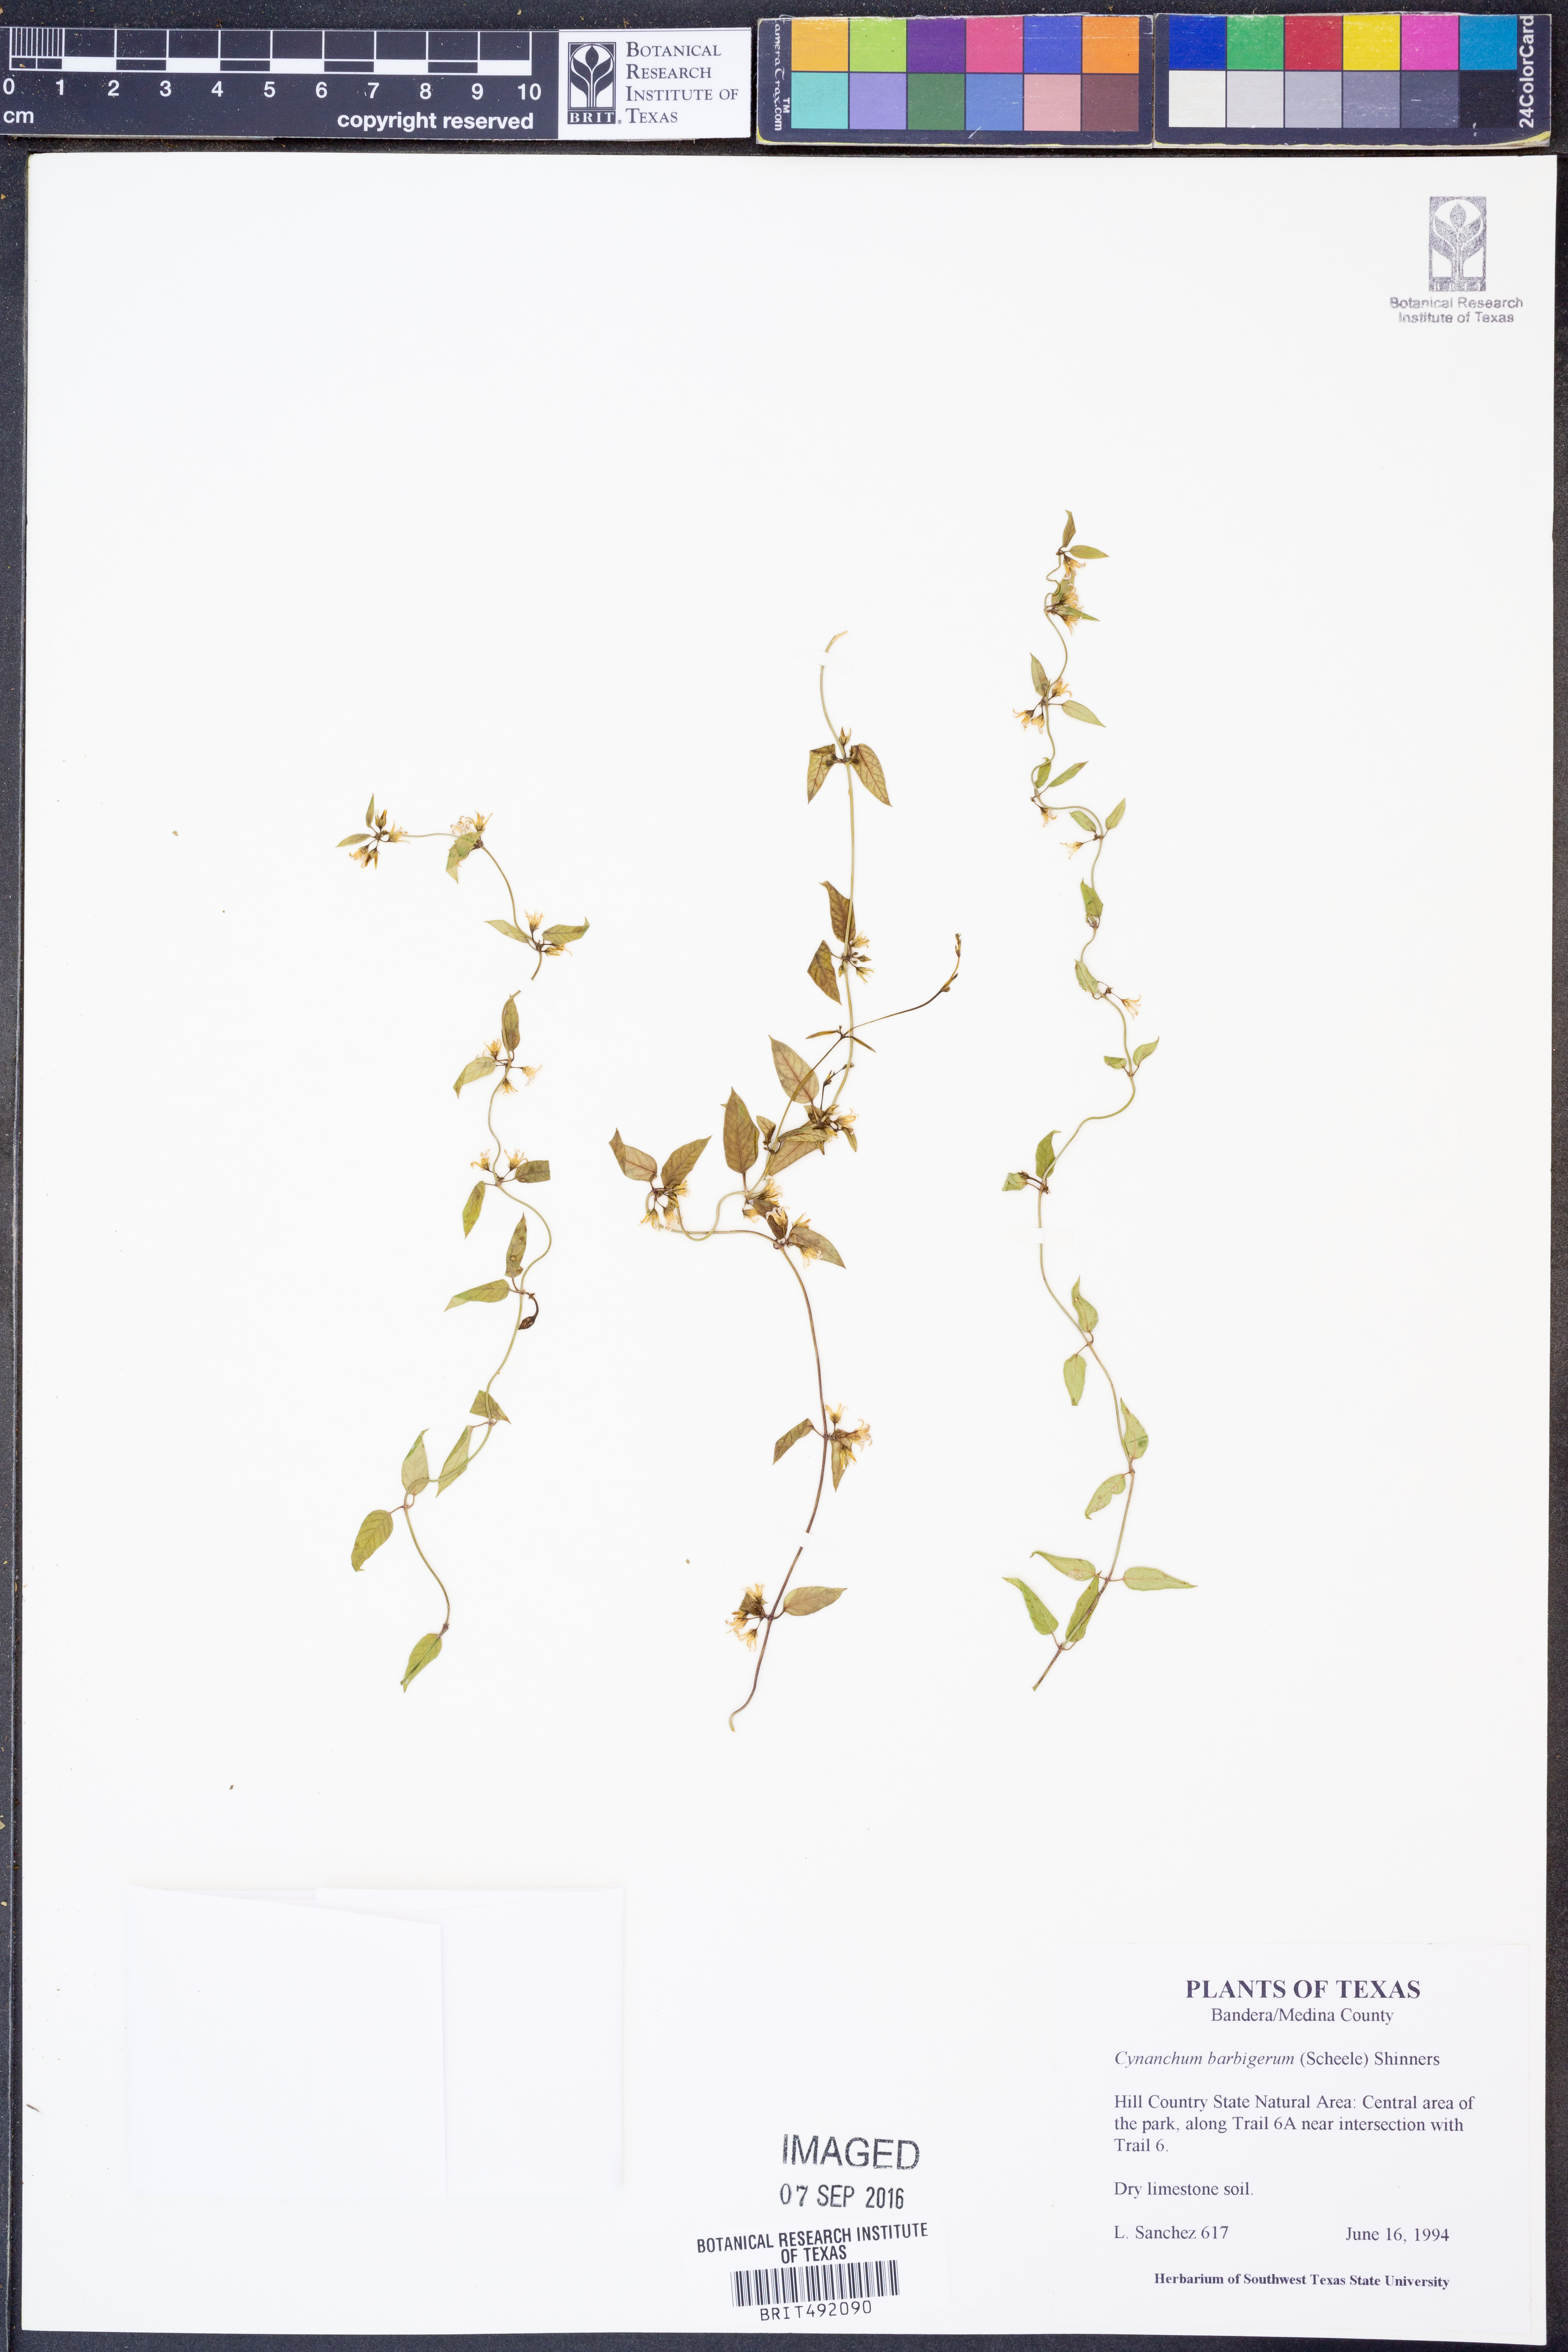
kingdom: Plantae
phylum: Tracheophyta
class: Magnoliopsida
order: Gentianales
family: Apocynaceae
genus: Metastelma
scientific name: Metastelma barbigerum
